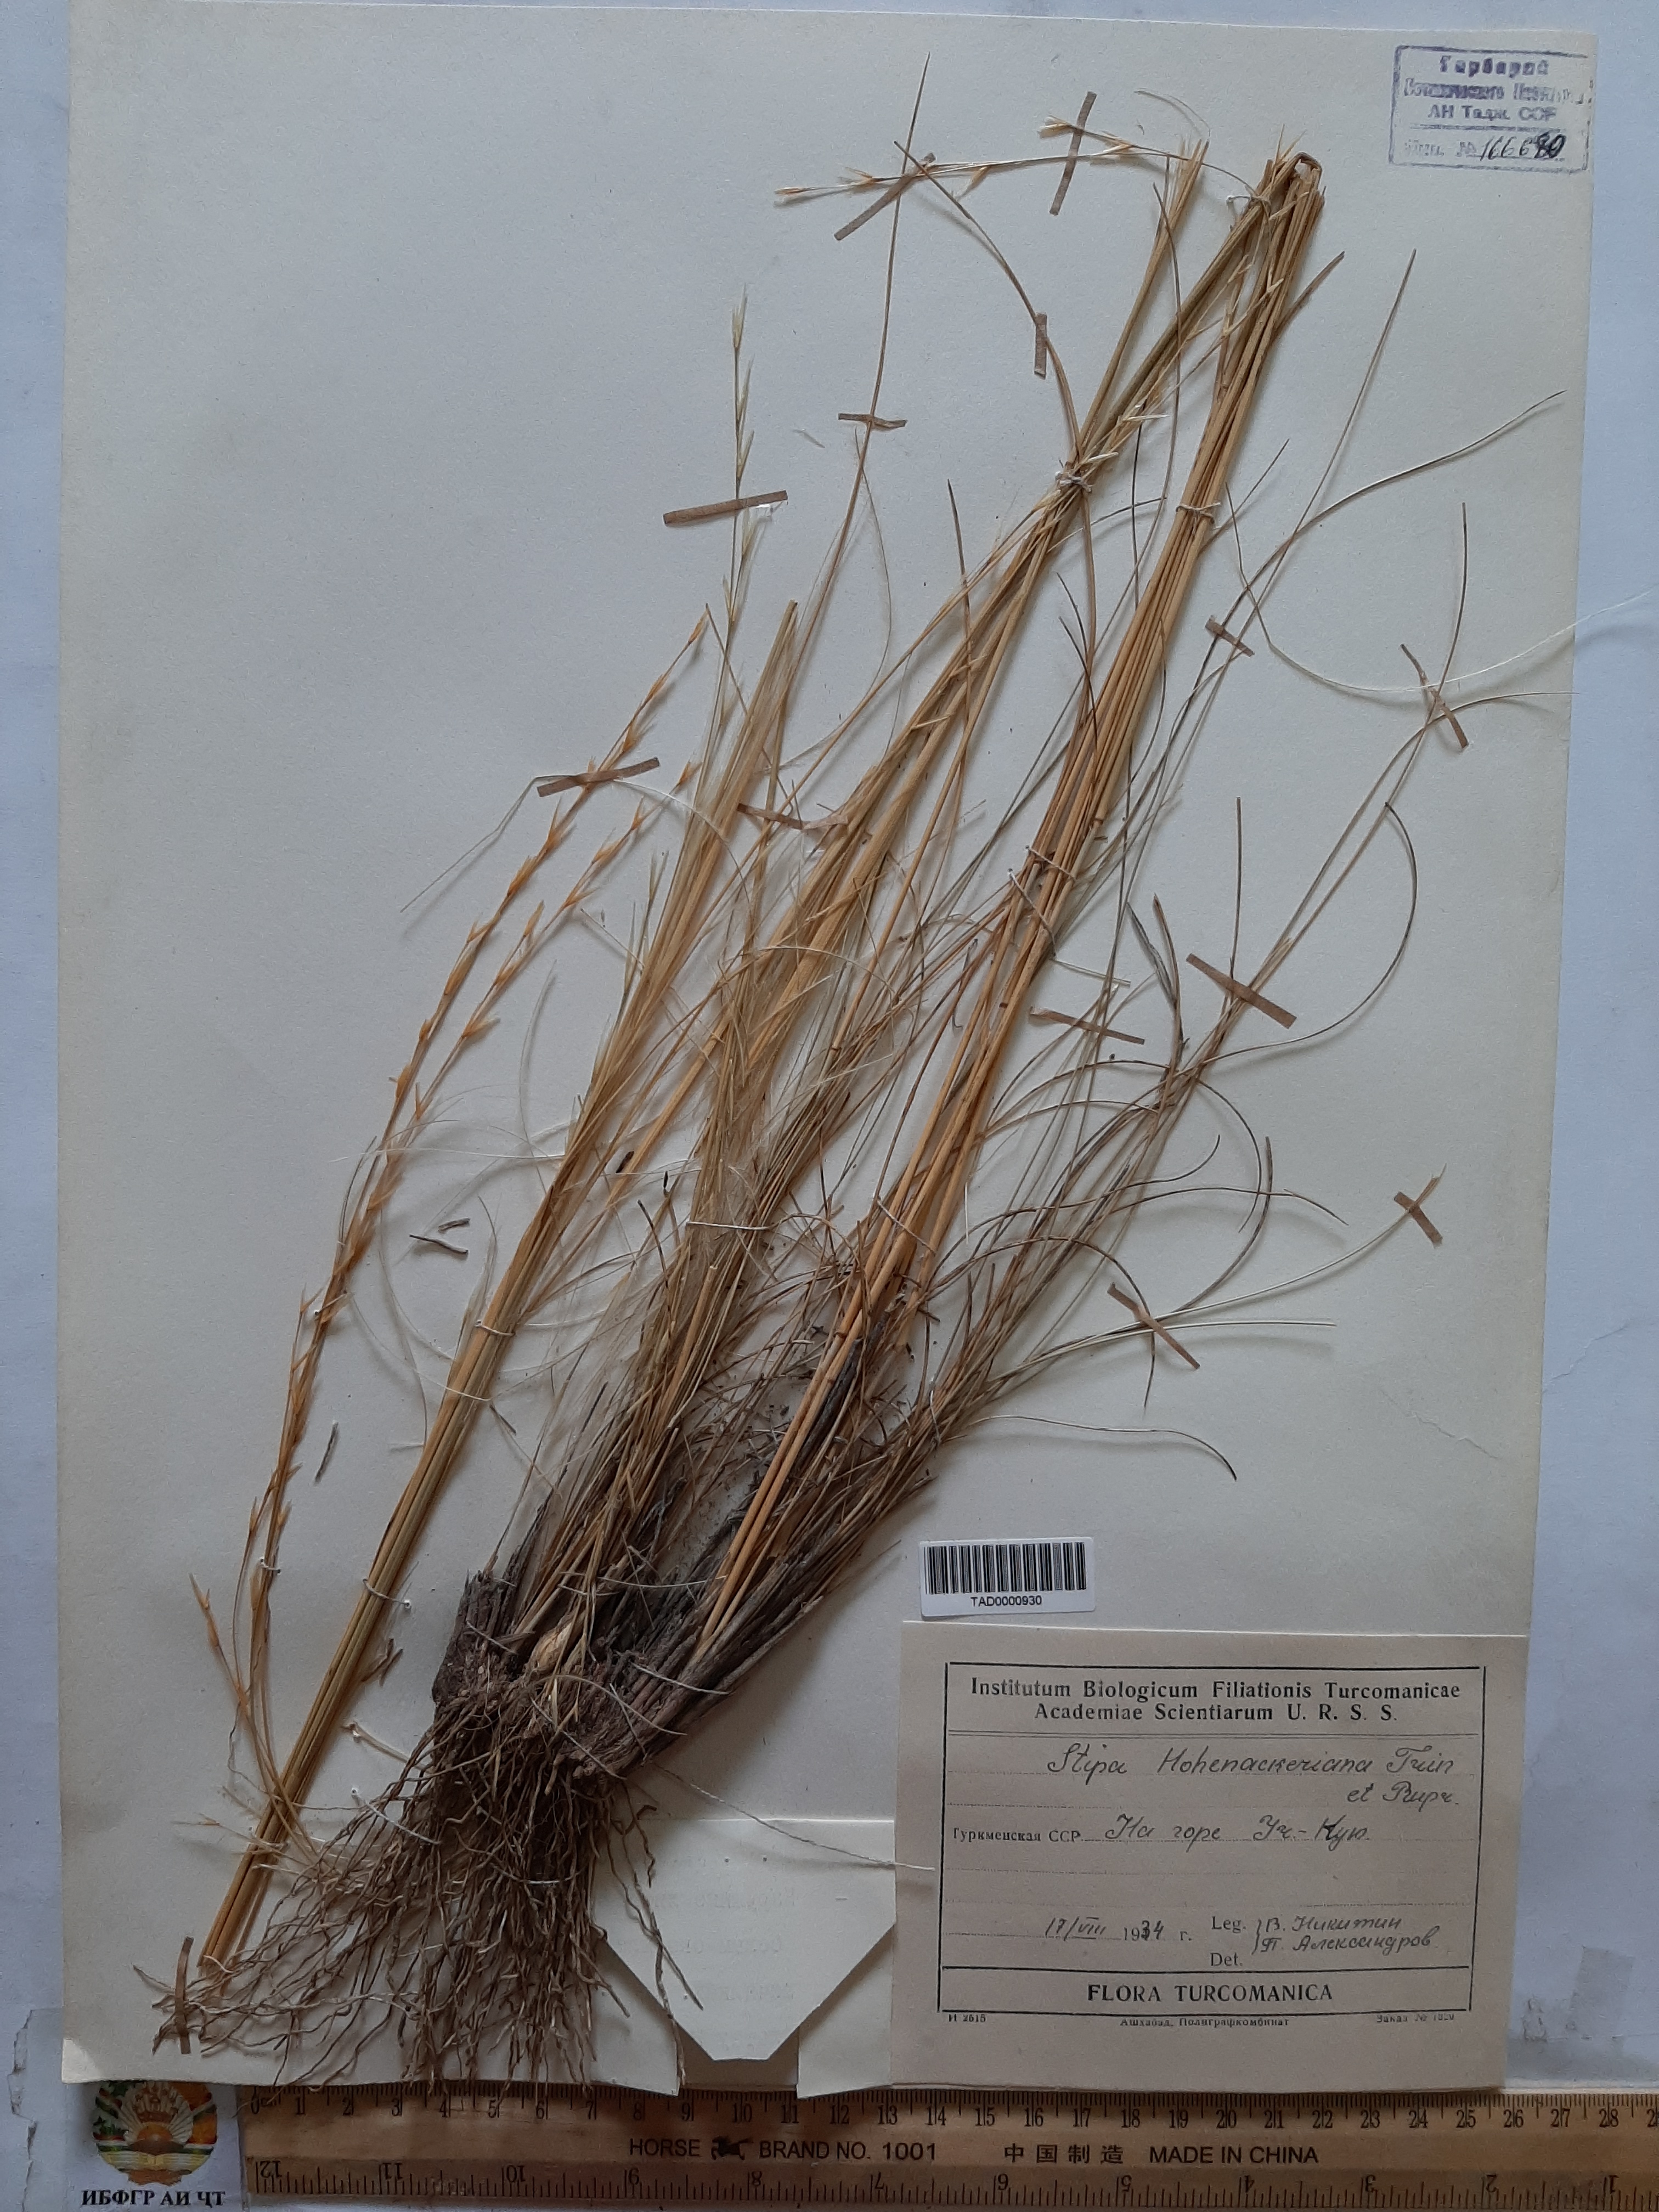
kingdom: Plantae
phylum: Tracheophyta
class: Liliopsida
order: Poales
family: Poaceae
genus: Stipa
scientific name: Stipa hohenackeriana
